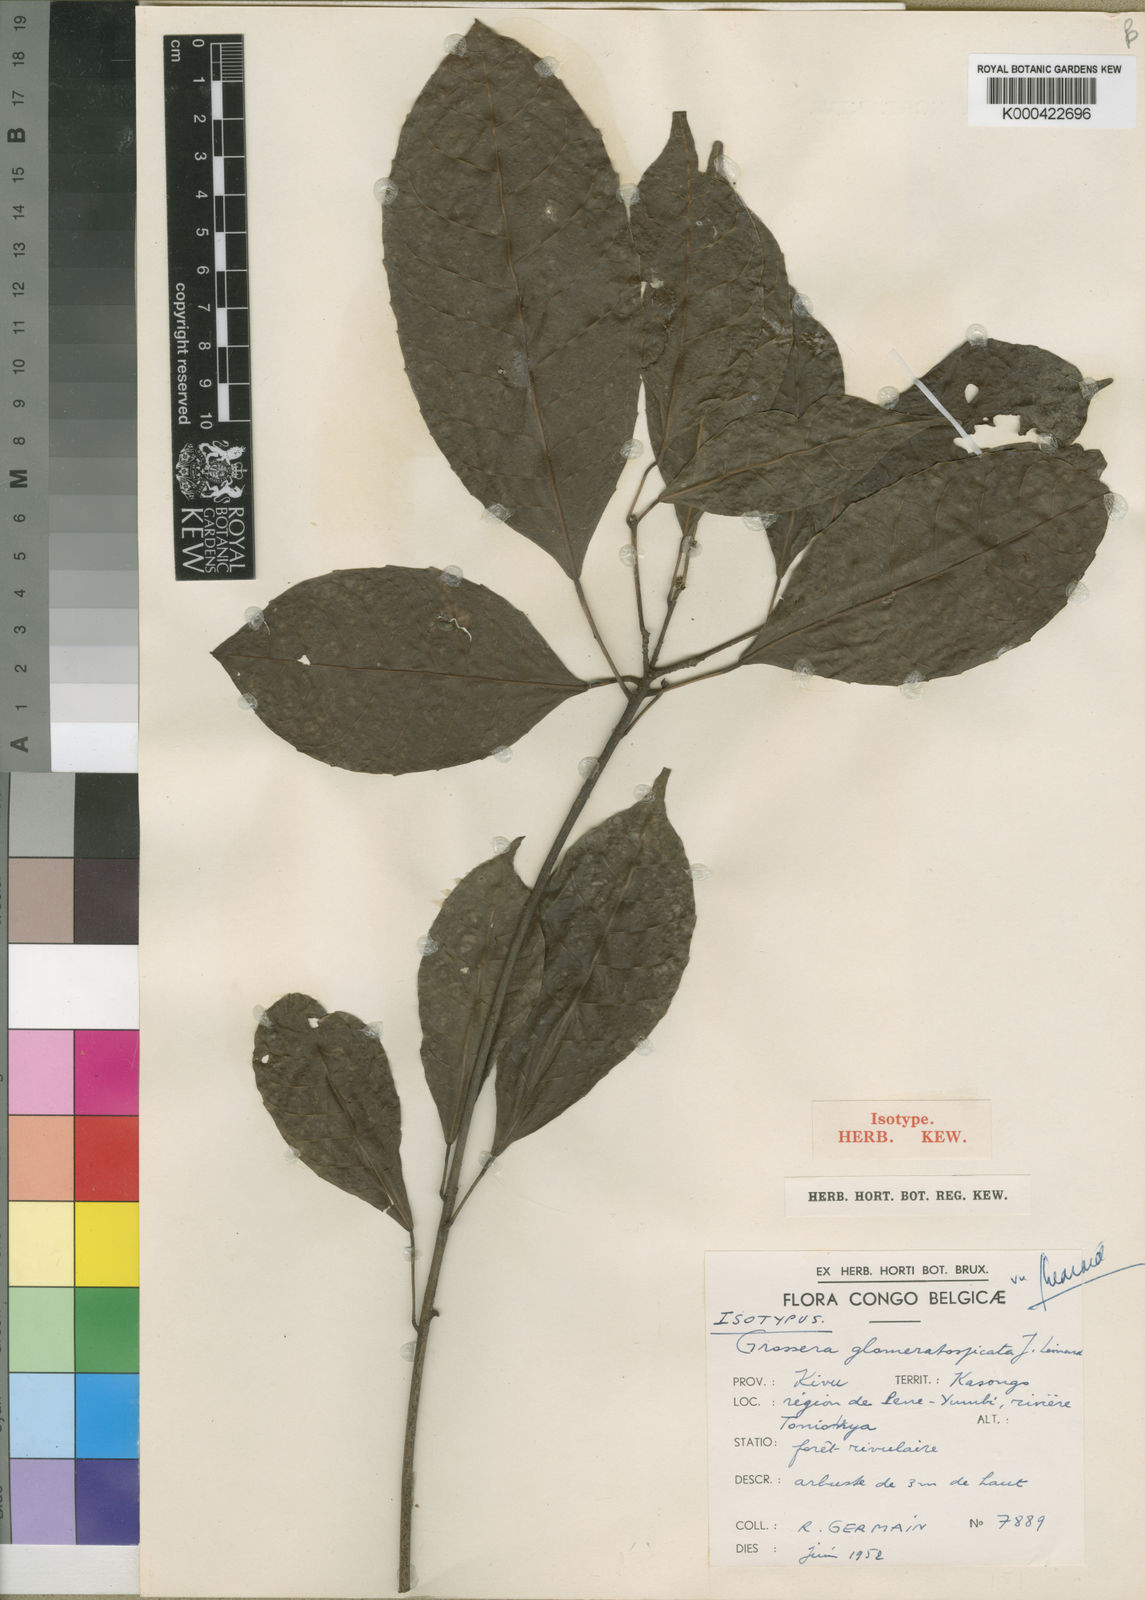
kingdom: Plantae
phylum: Tracheophyta
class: Magnoliopsida
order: Malpighiales
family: Euphorbiaceae
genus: Grossera
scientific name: Grossera
